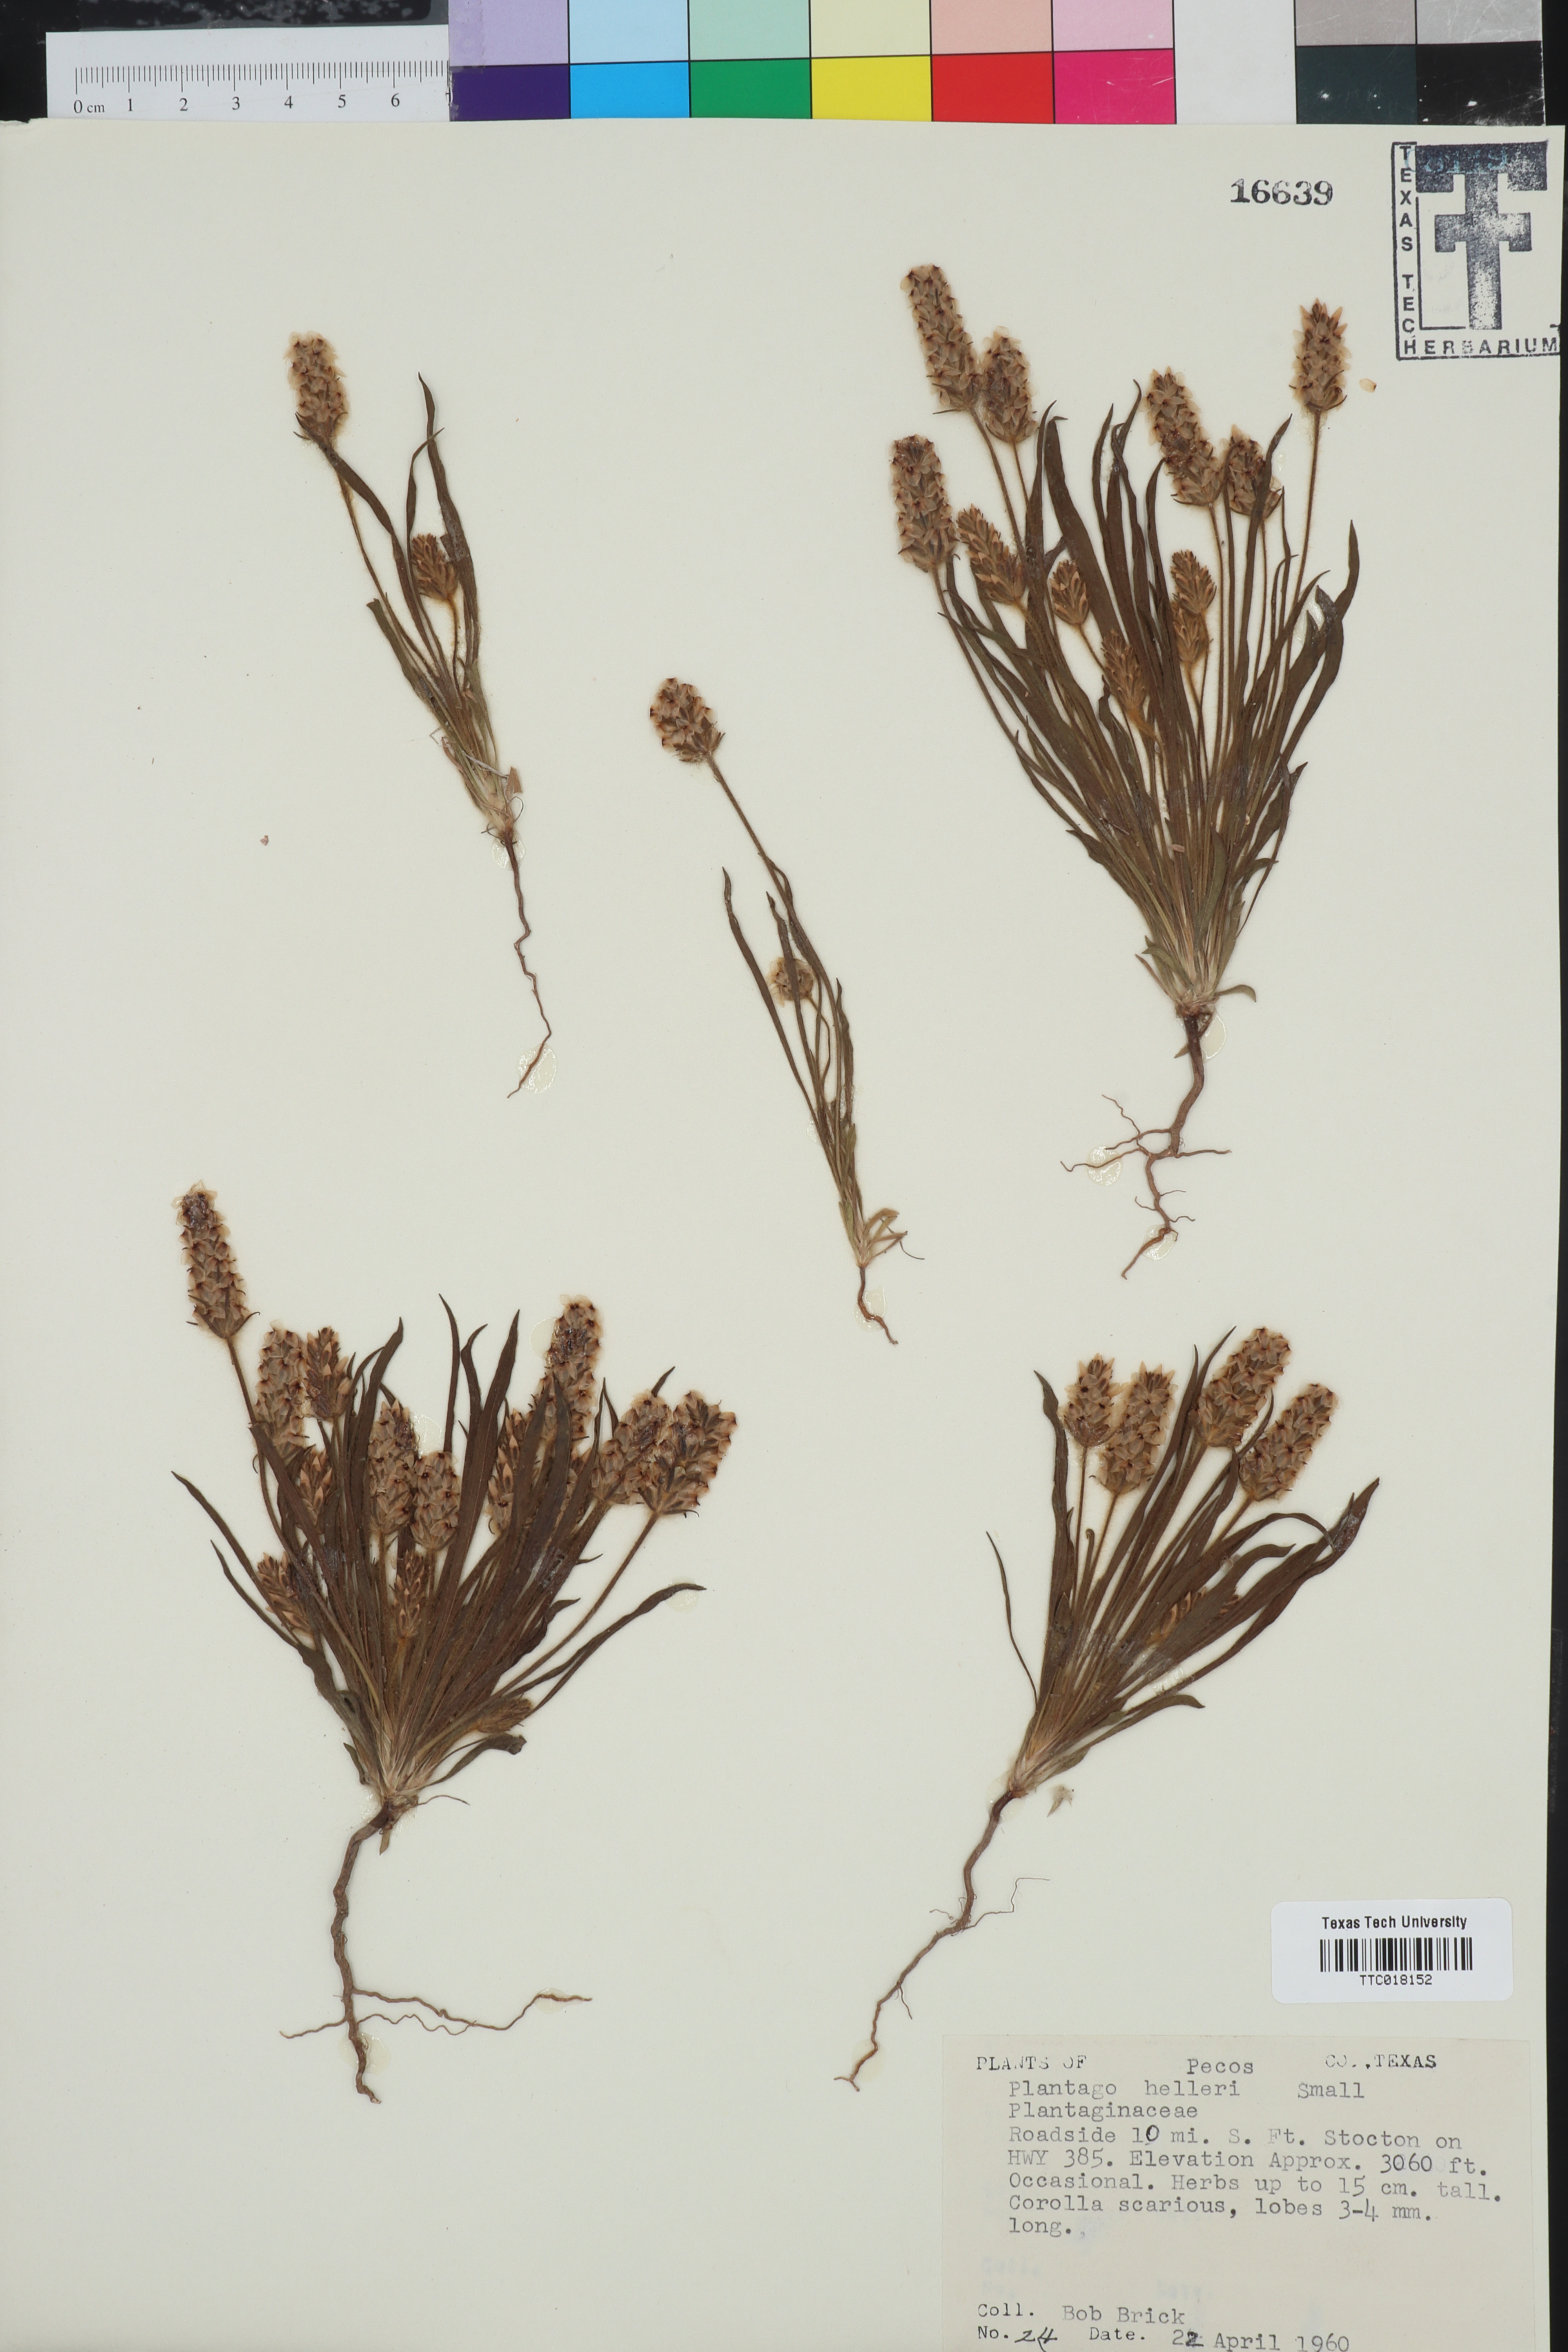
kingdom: Plantae
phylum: Tracheophyta
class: Magnoliopsida
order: Lamiales
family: Plantaginaceae
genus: Plantago
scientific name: Plantago helleri
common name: Heller's plantain
